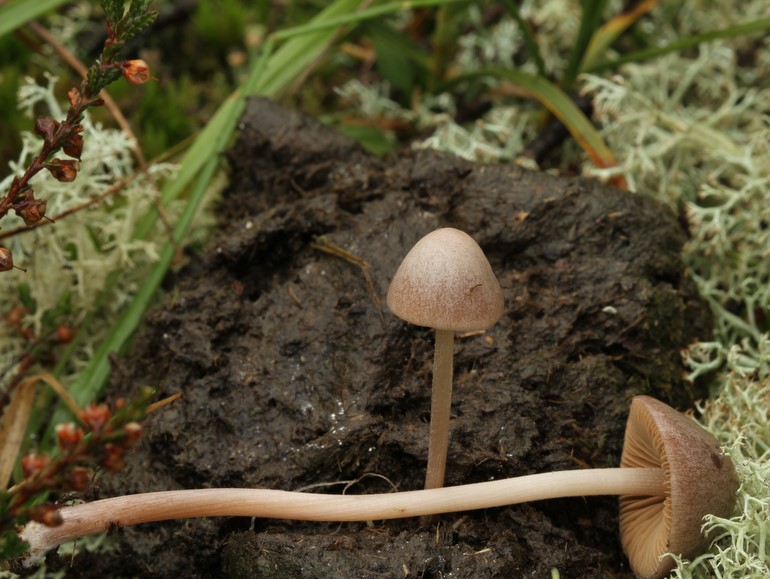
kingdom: Fungi
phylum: Basidiomycota
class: Agaricomycetes
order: Agaricales
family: Bolbitiaceae
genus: Conocybe
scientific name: Conocybe juniana
